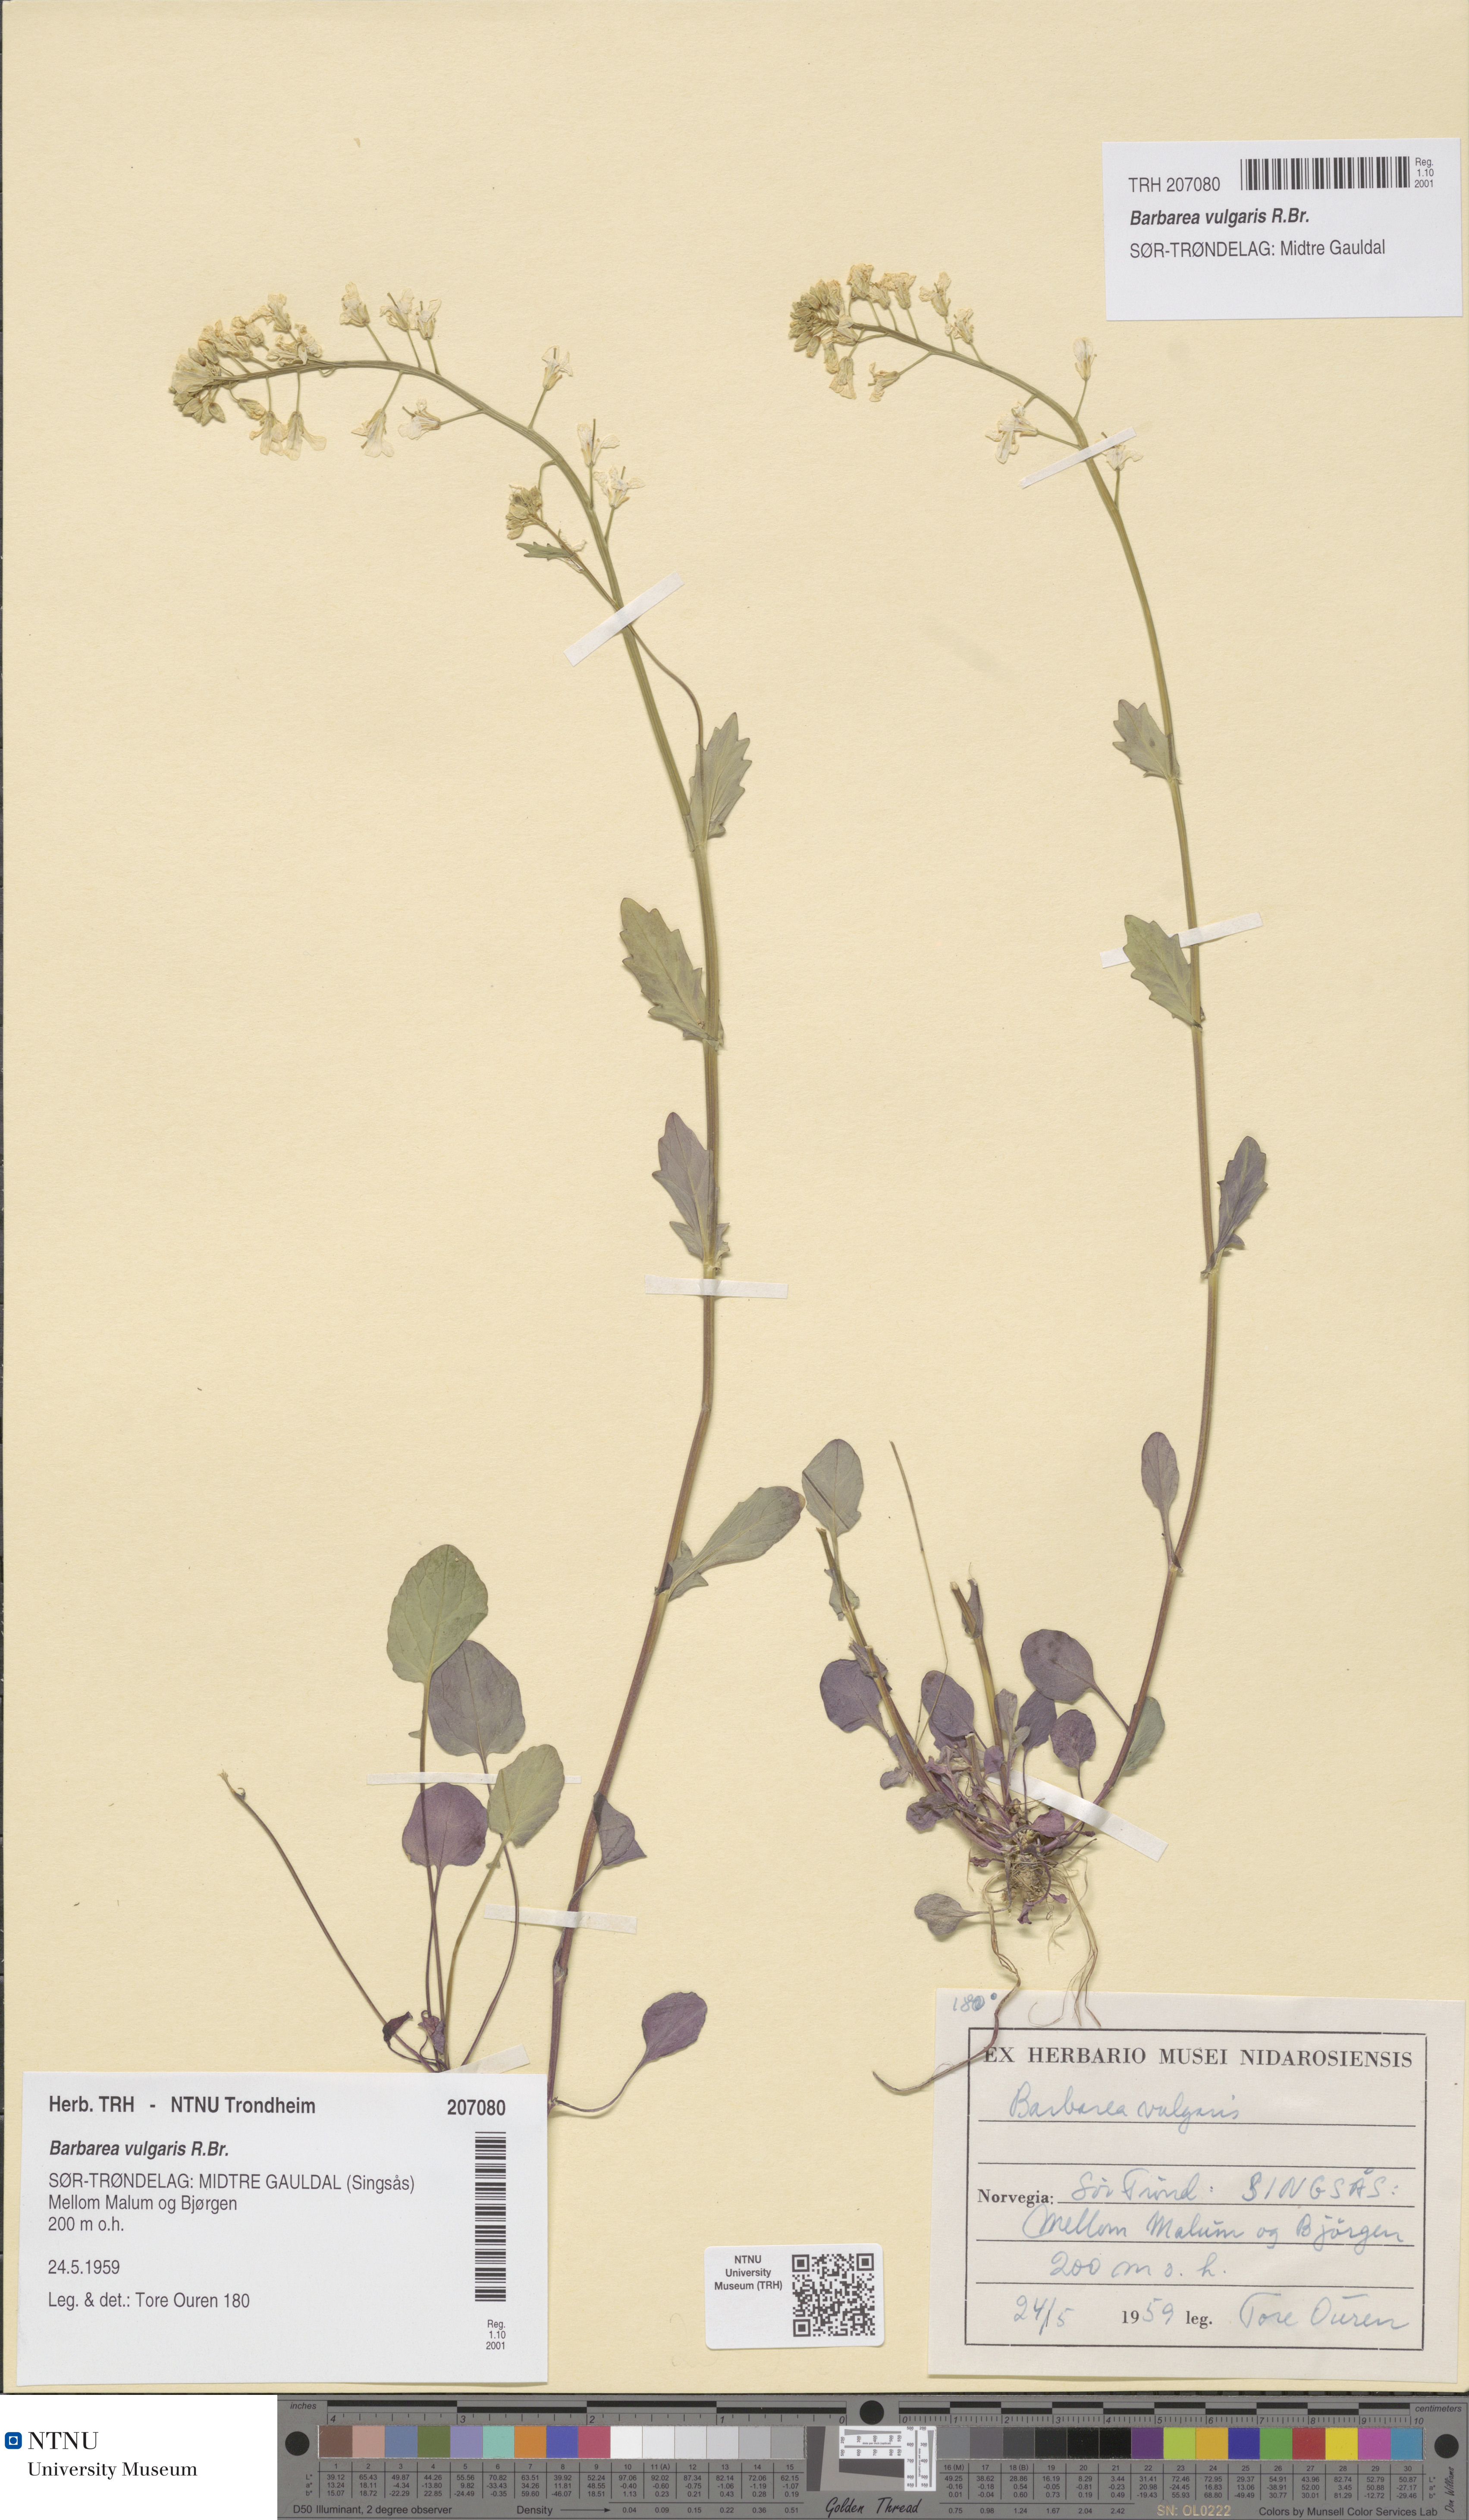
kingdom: Plantae
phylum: Tracheophyta
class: Magnoliopsida
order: Brassicales
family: Brassicaceae
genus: Barbarea
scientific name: Barbarea vulgaris
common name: Cressy-greens
